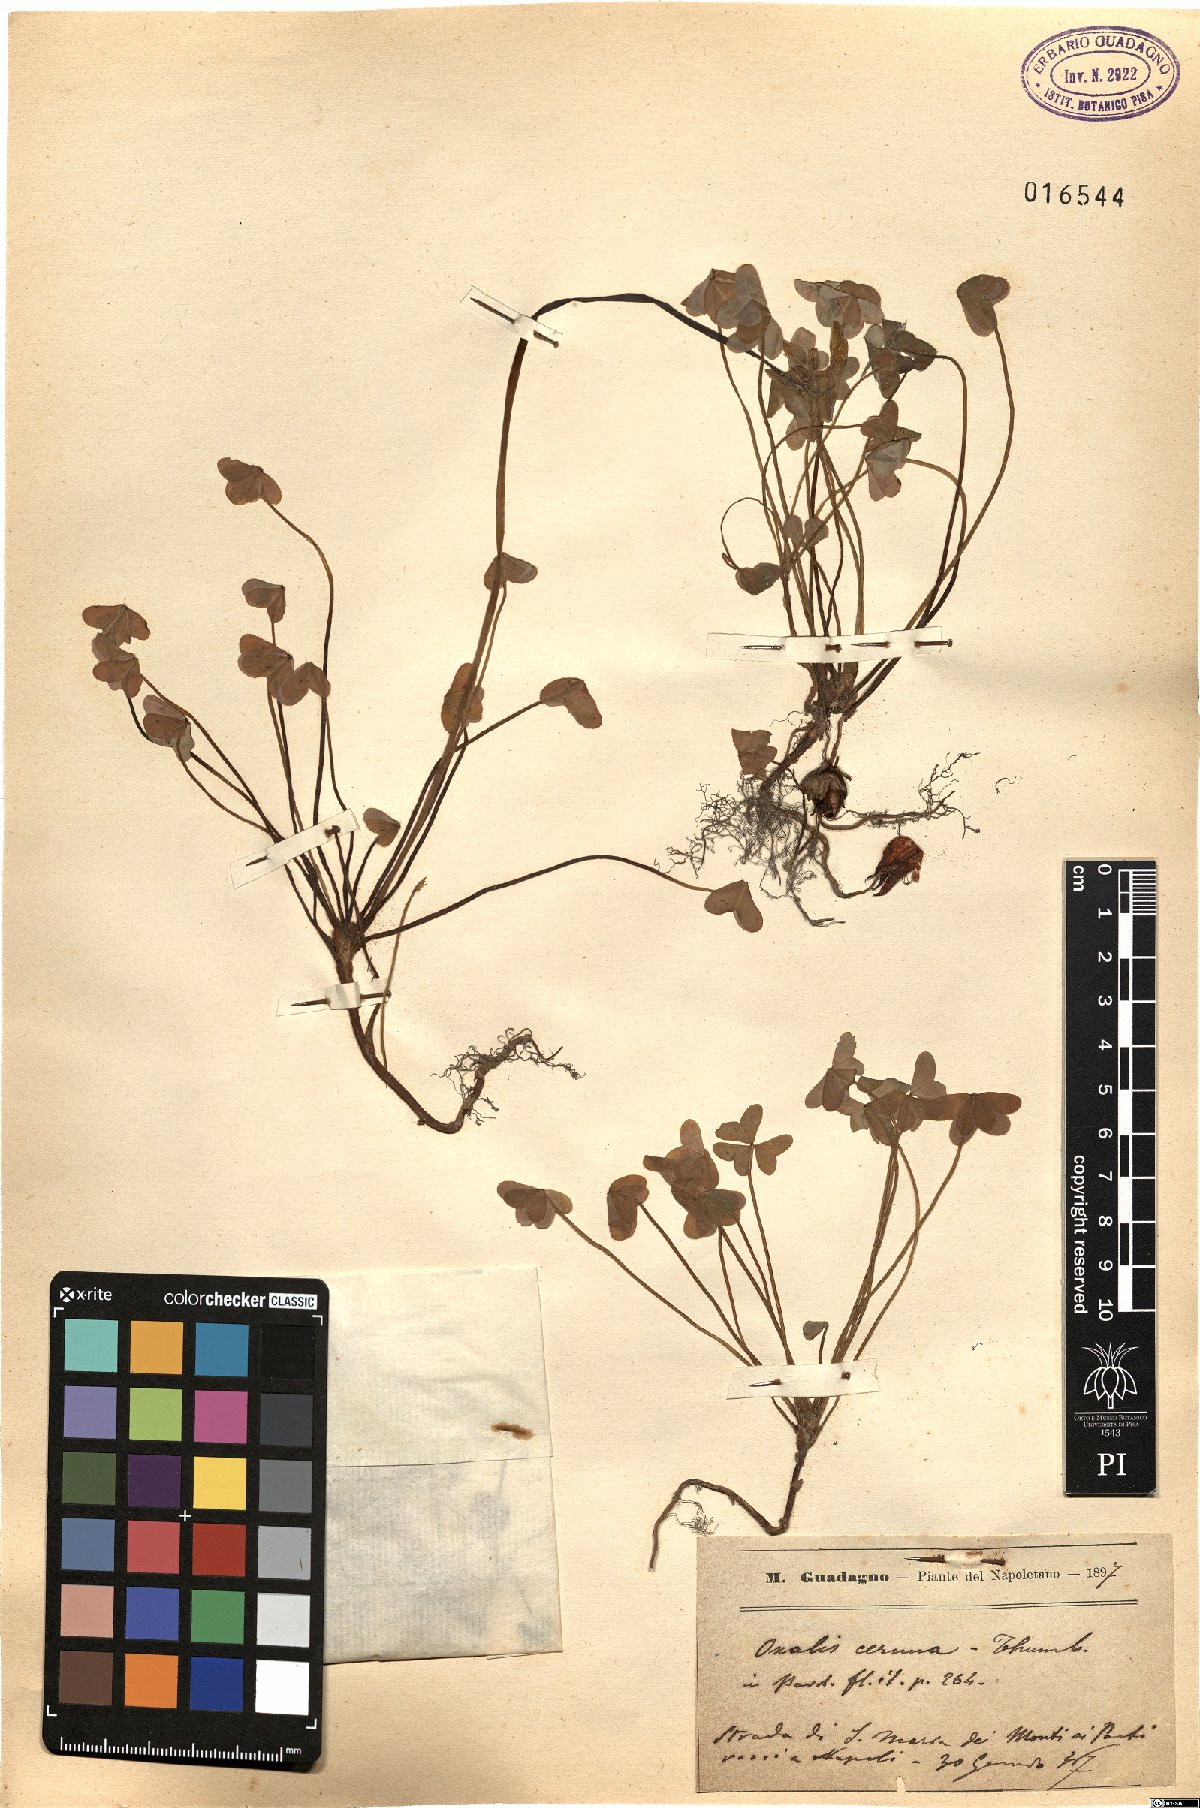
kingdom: Plantae
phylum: Tracheophyta
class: Magnoliopsida
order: Oxalidales
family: Oxalidaceae
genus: Oxalis
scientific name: Oxalis pes-caprae
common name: Bermuda-buttercup
